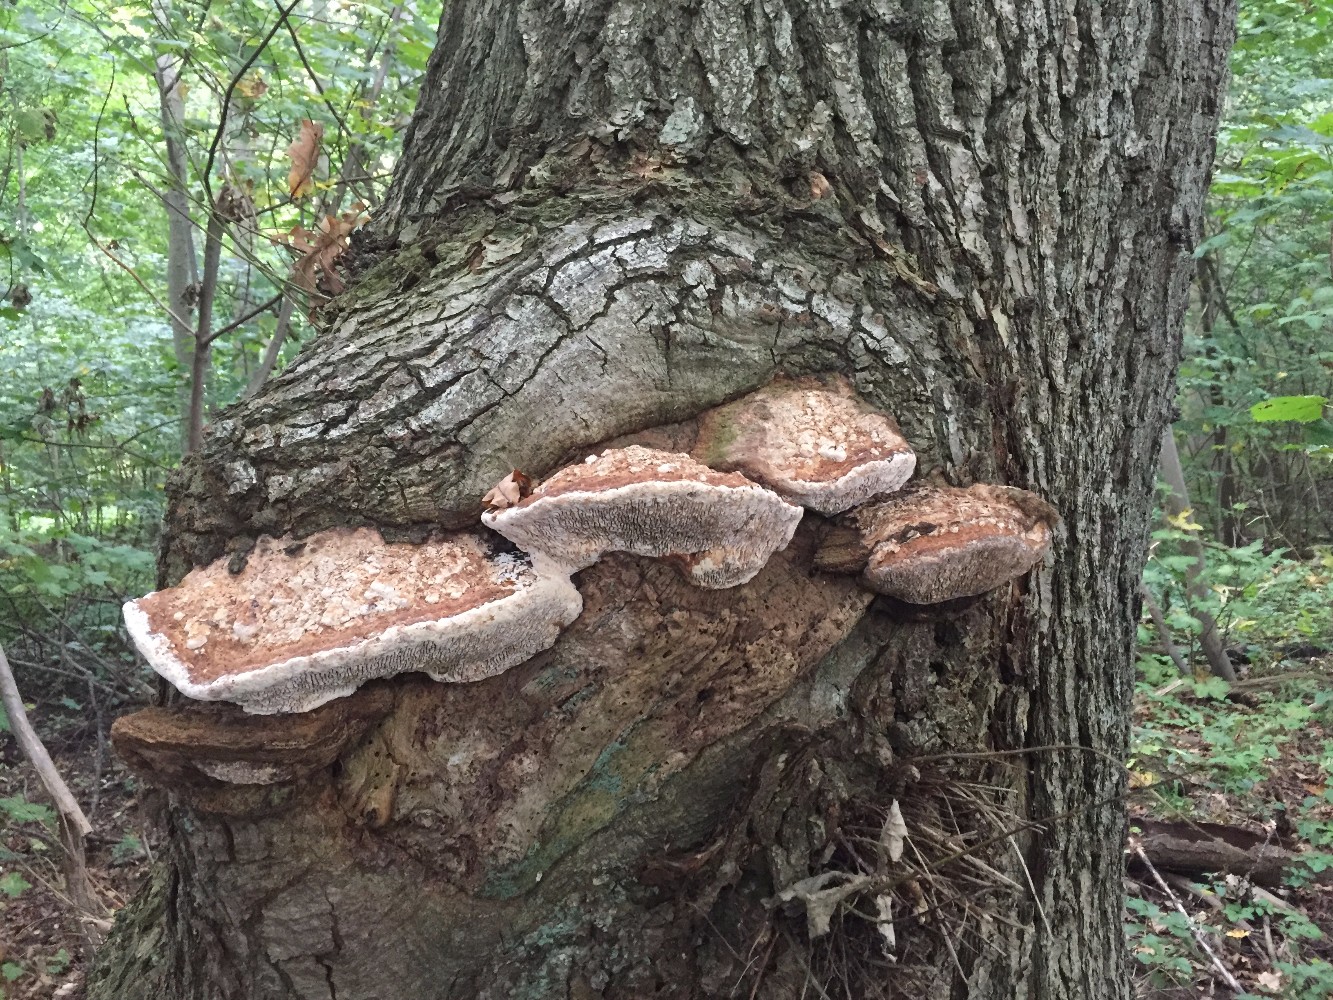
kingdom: Fungi
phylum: Basidiomycota
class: Agaricomycetes
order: Polyporales
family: Fomitopsidaceae
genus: Daedalea
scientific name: Daedalea quercina
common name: ege-labyrintsvamp
